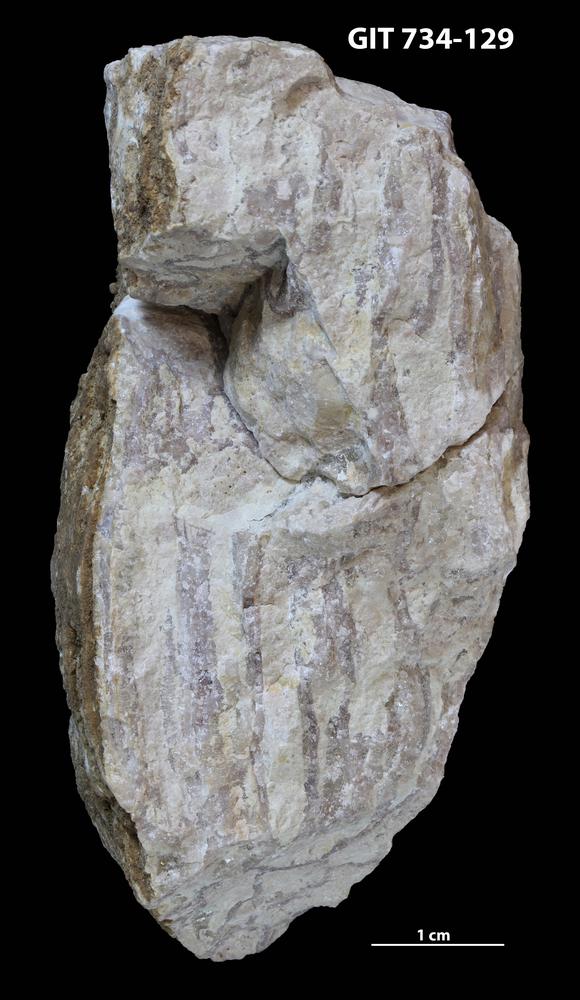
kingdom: Animalia
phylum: Cnidaria
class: Anthozoa
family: Cateniporidae
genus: Catenipora
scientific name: Catenipora
